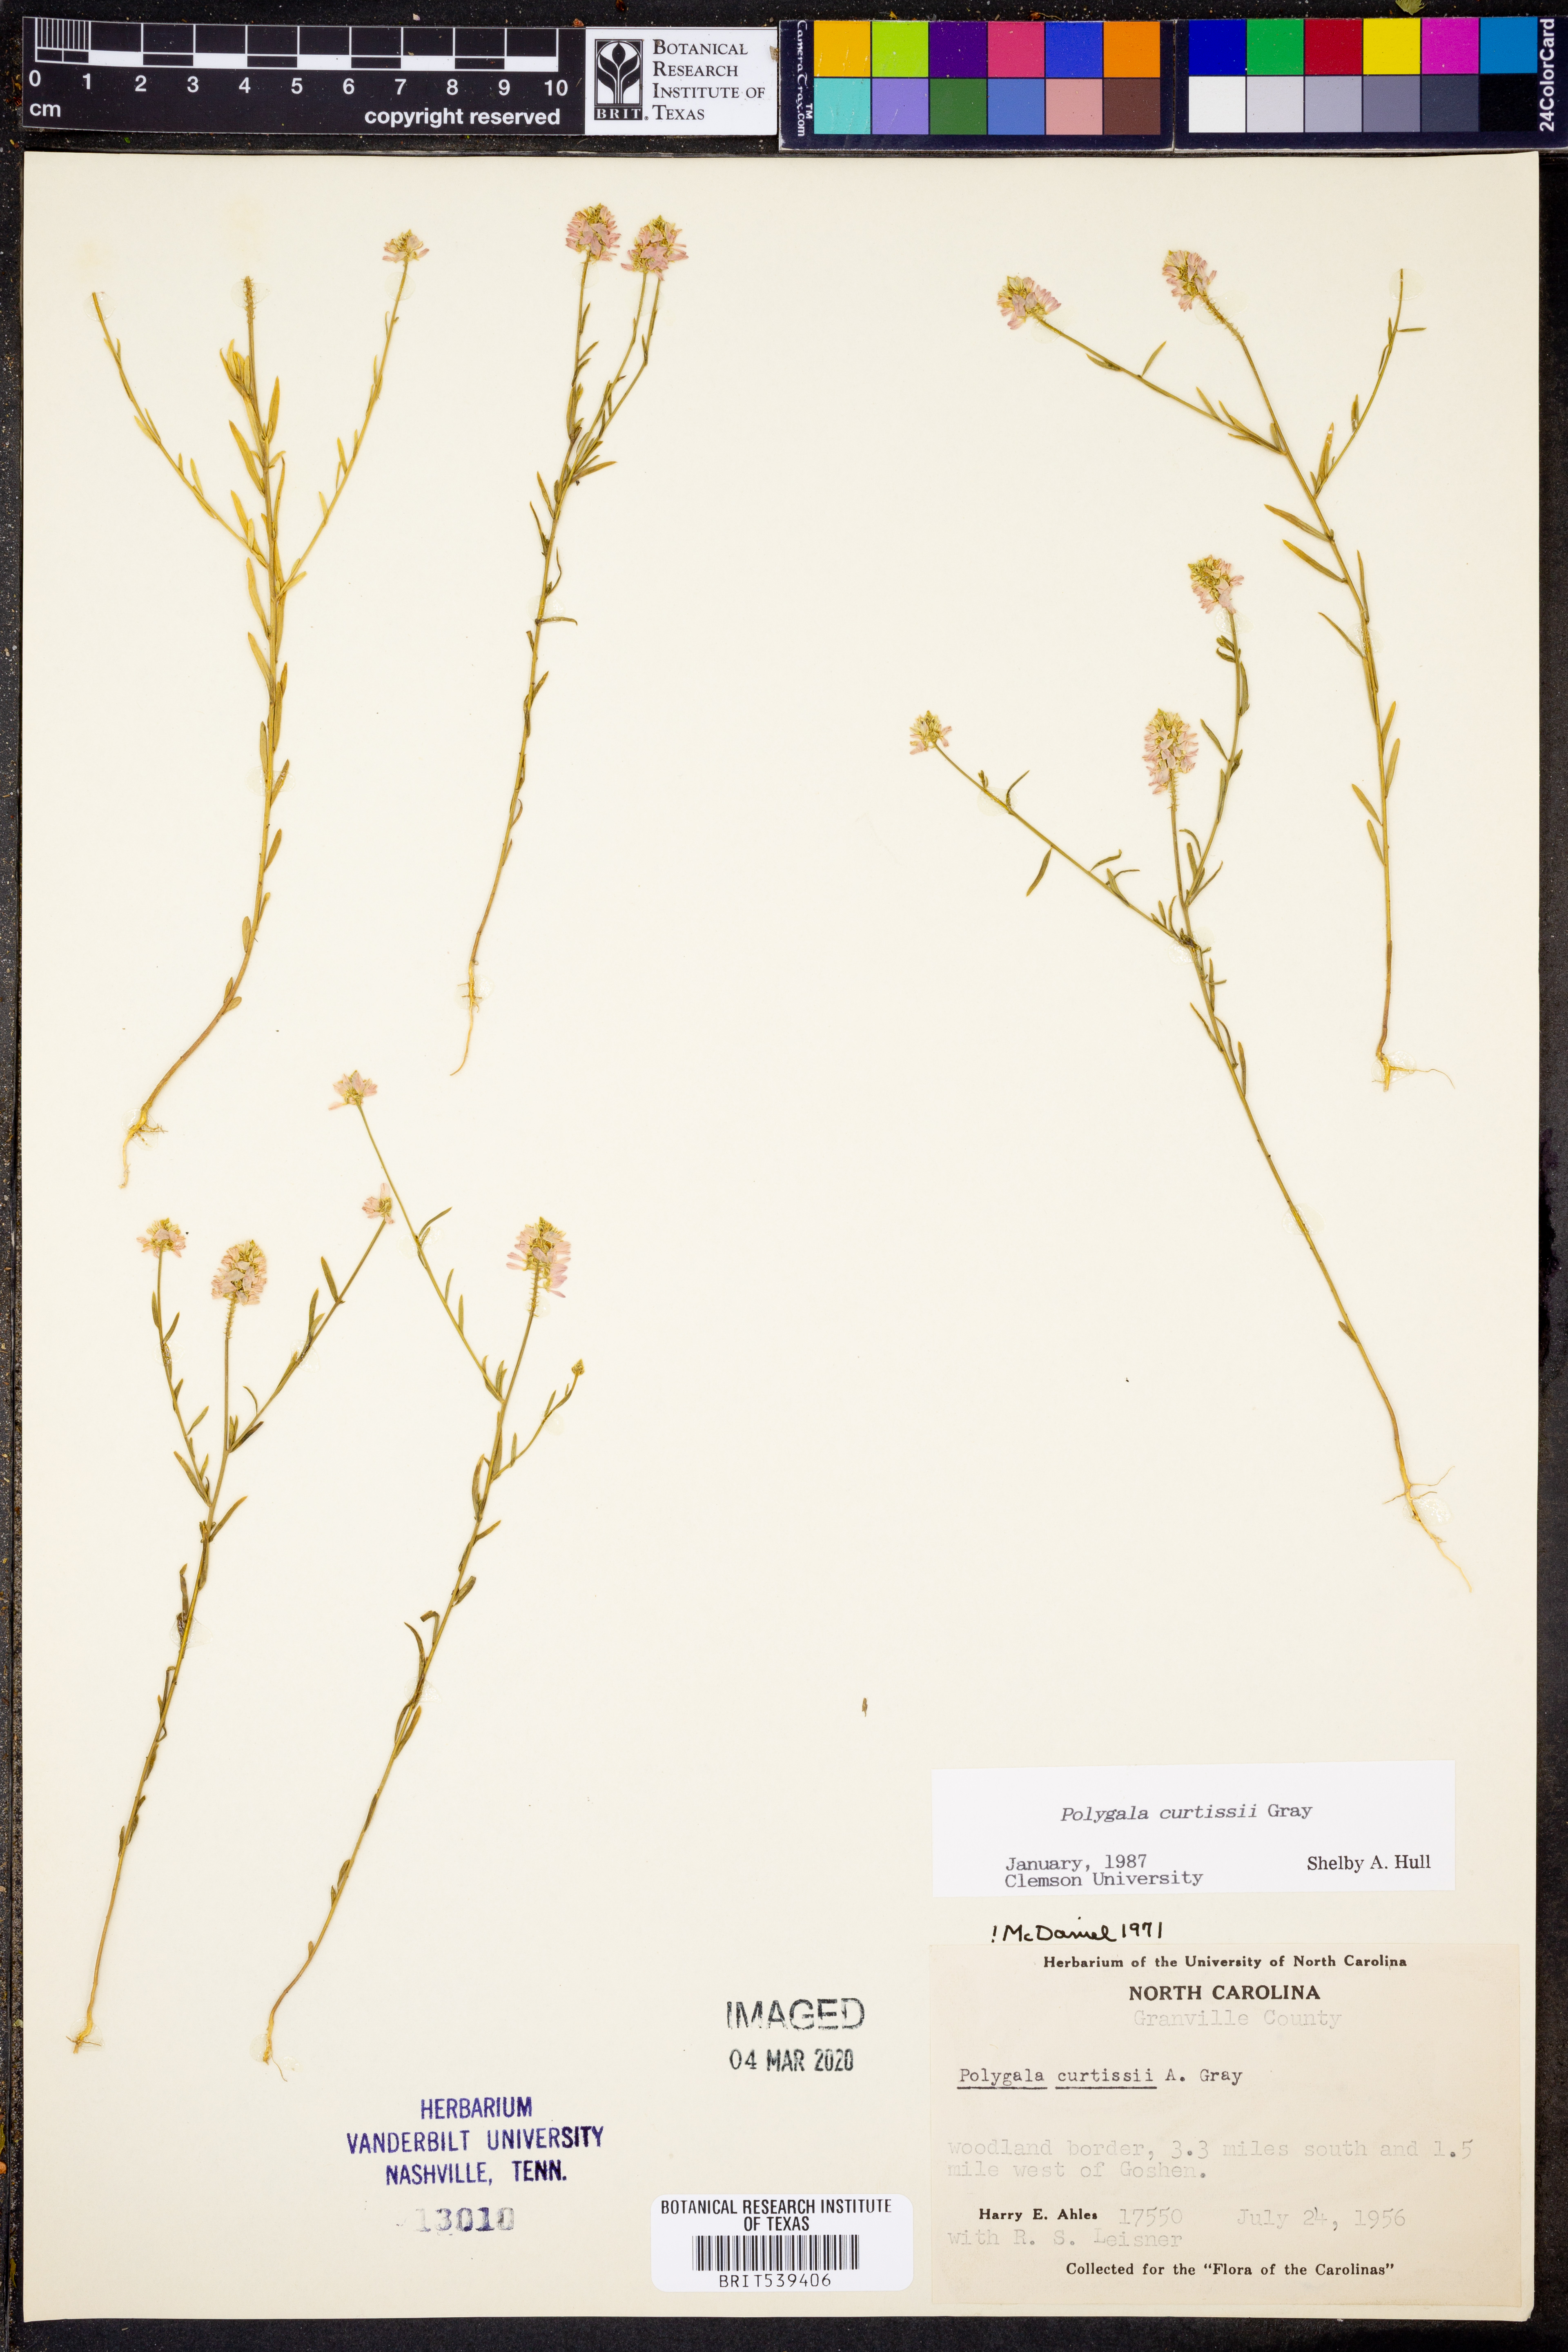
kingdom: Plantae
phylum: Tracheophyta
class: Magnoliopsida
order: Fabales
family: Polygalaceae
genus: Polygala
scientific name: Polygala curtissii
